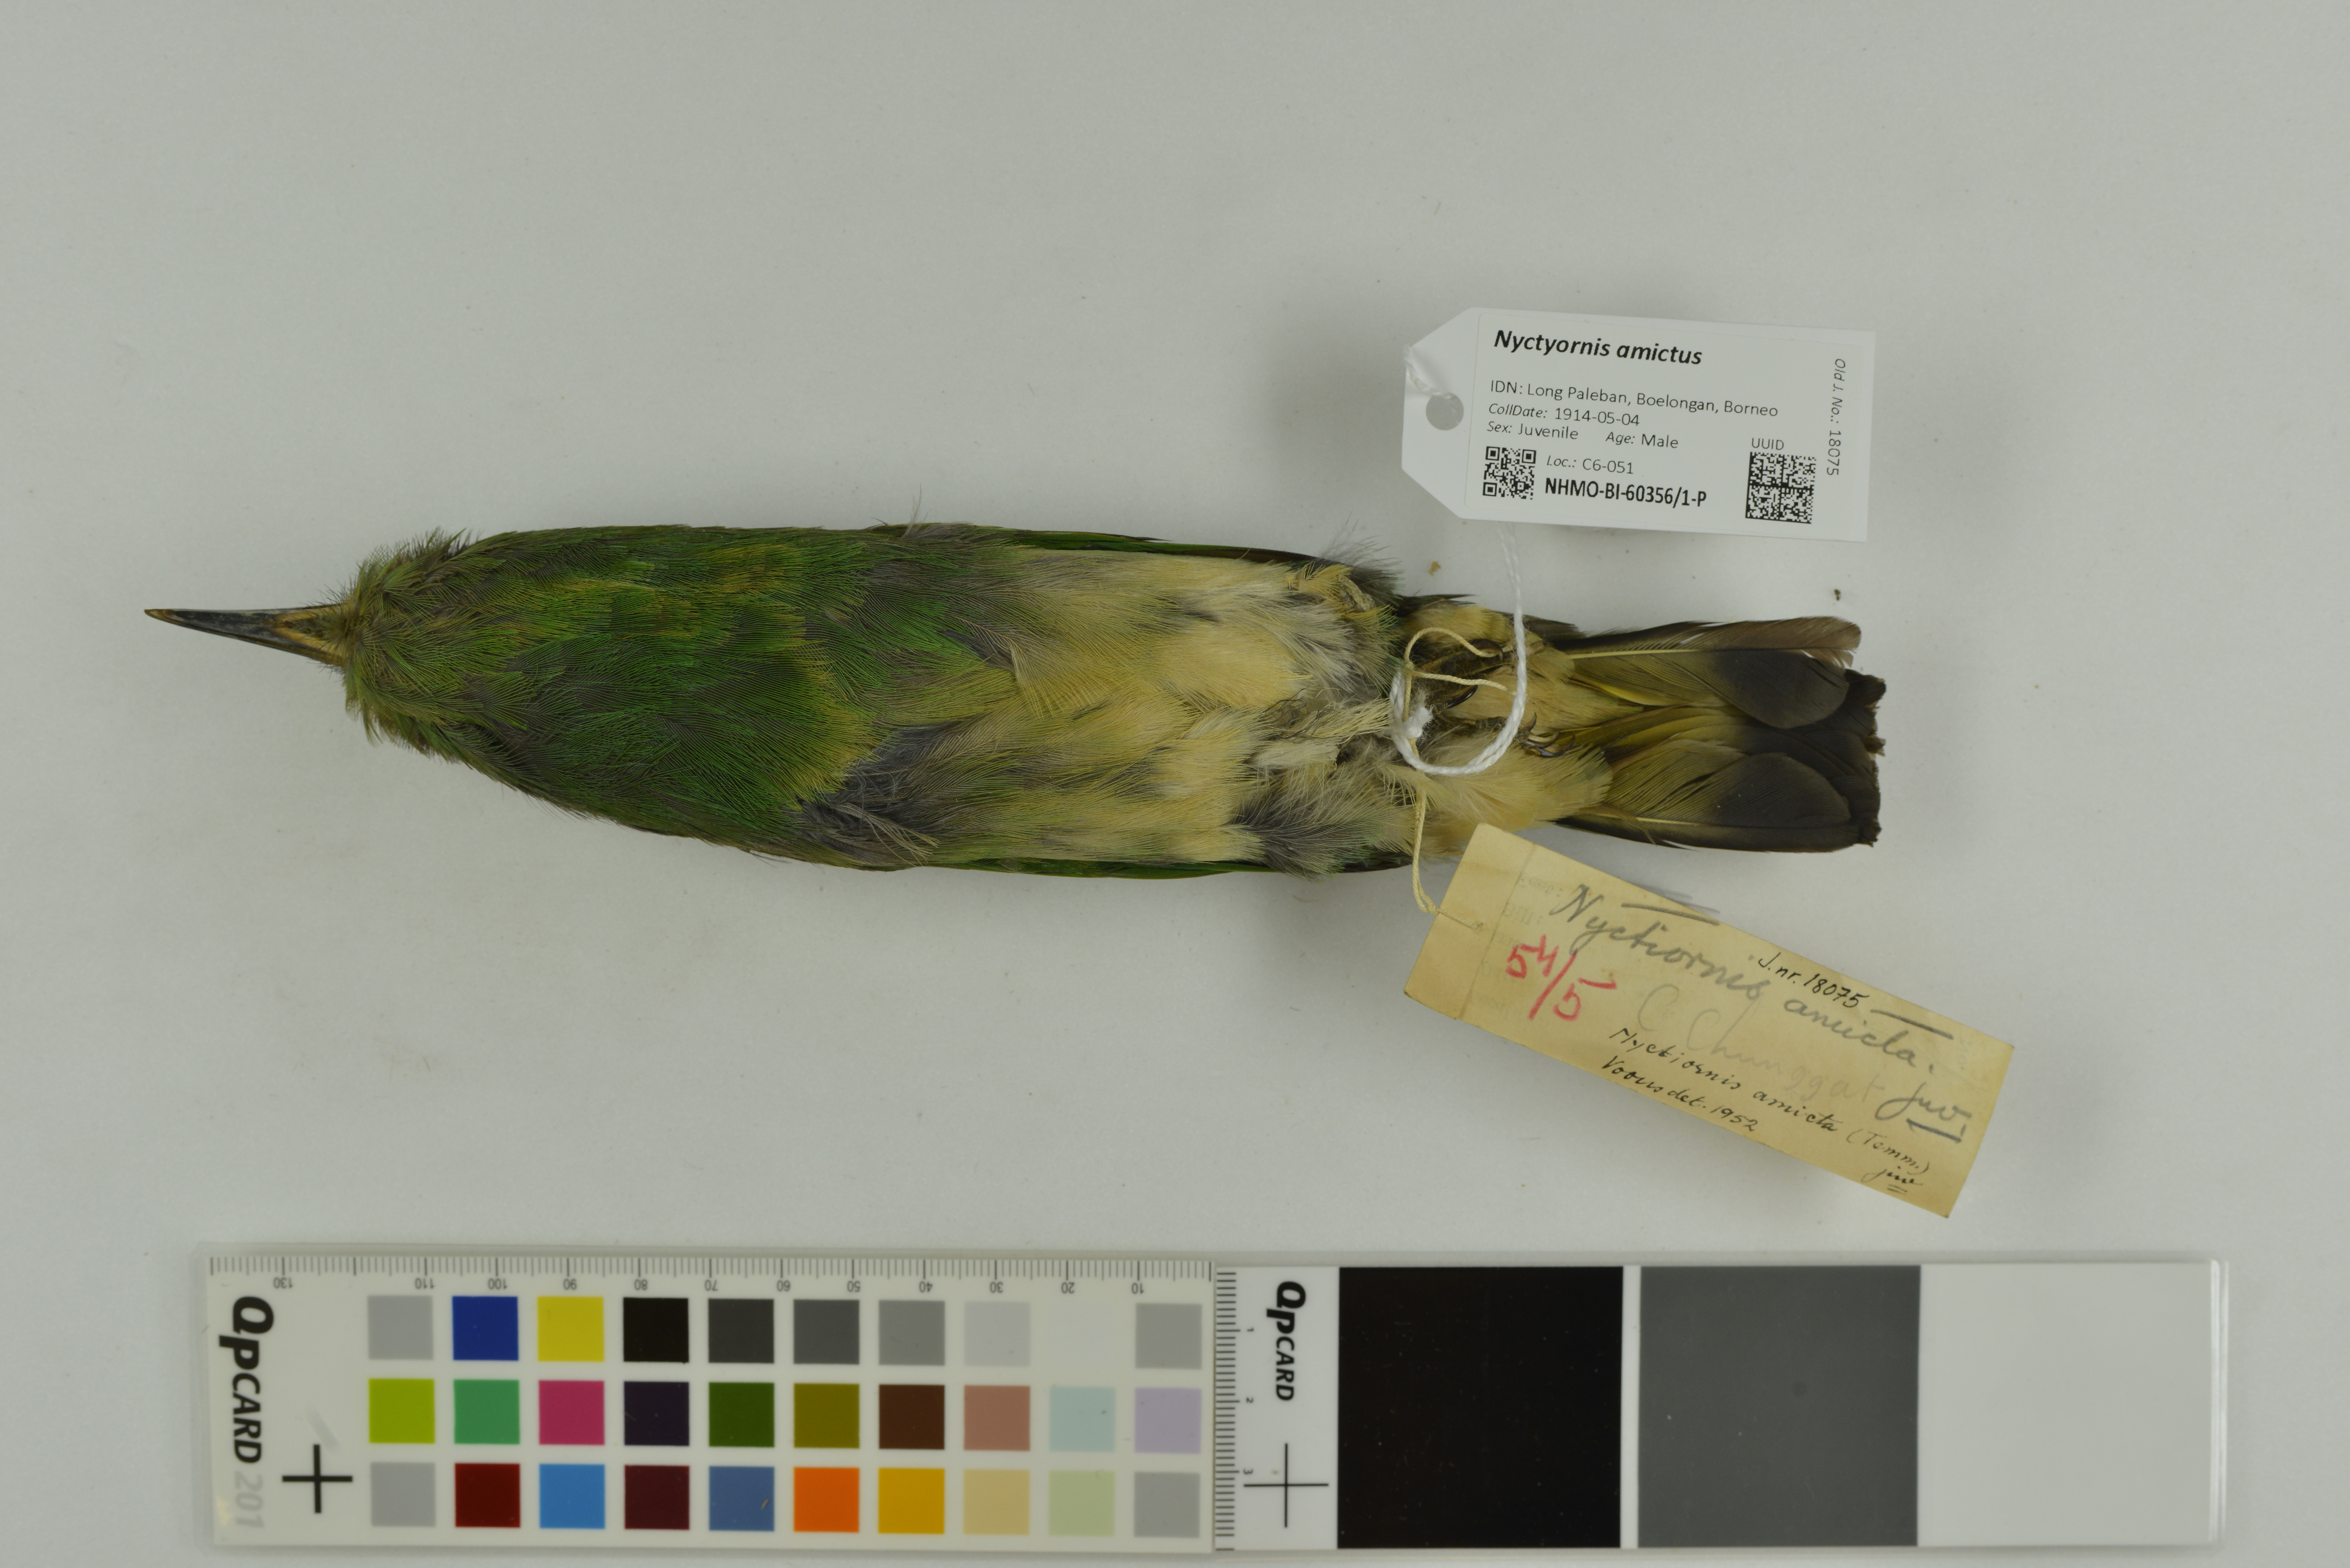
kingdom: Animalia
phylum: Chordata
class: Aves
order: Coraciiformes
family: Meropidae
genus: Nyctyornis
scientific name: Nyctyornis amictus
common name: Red-bearded bee-eater
